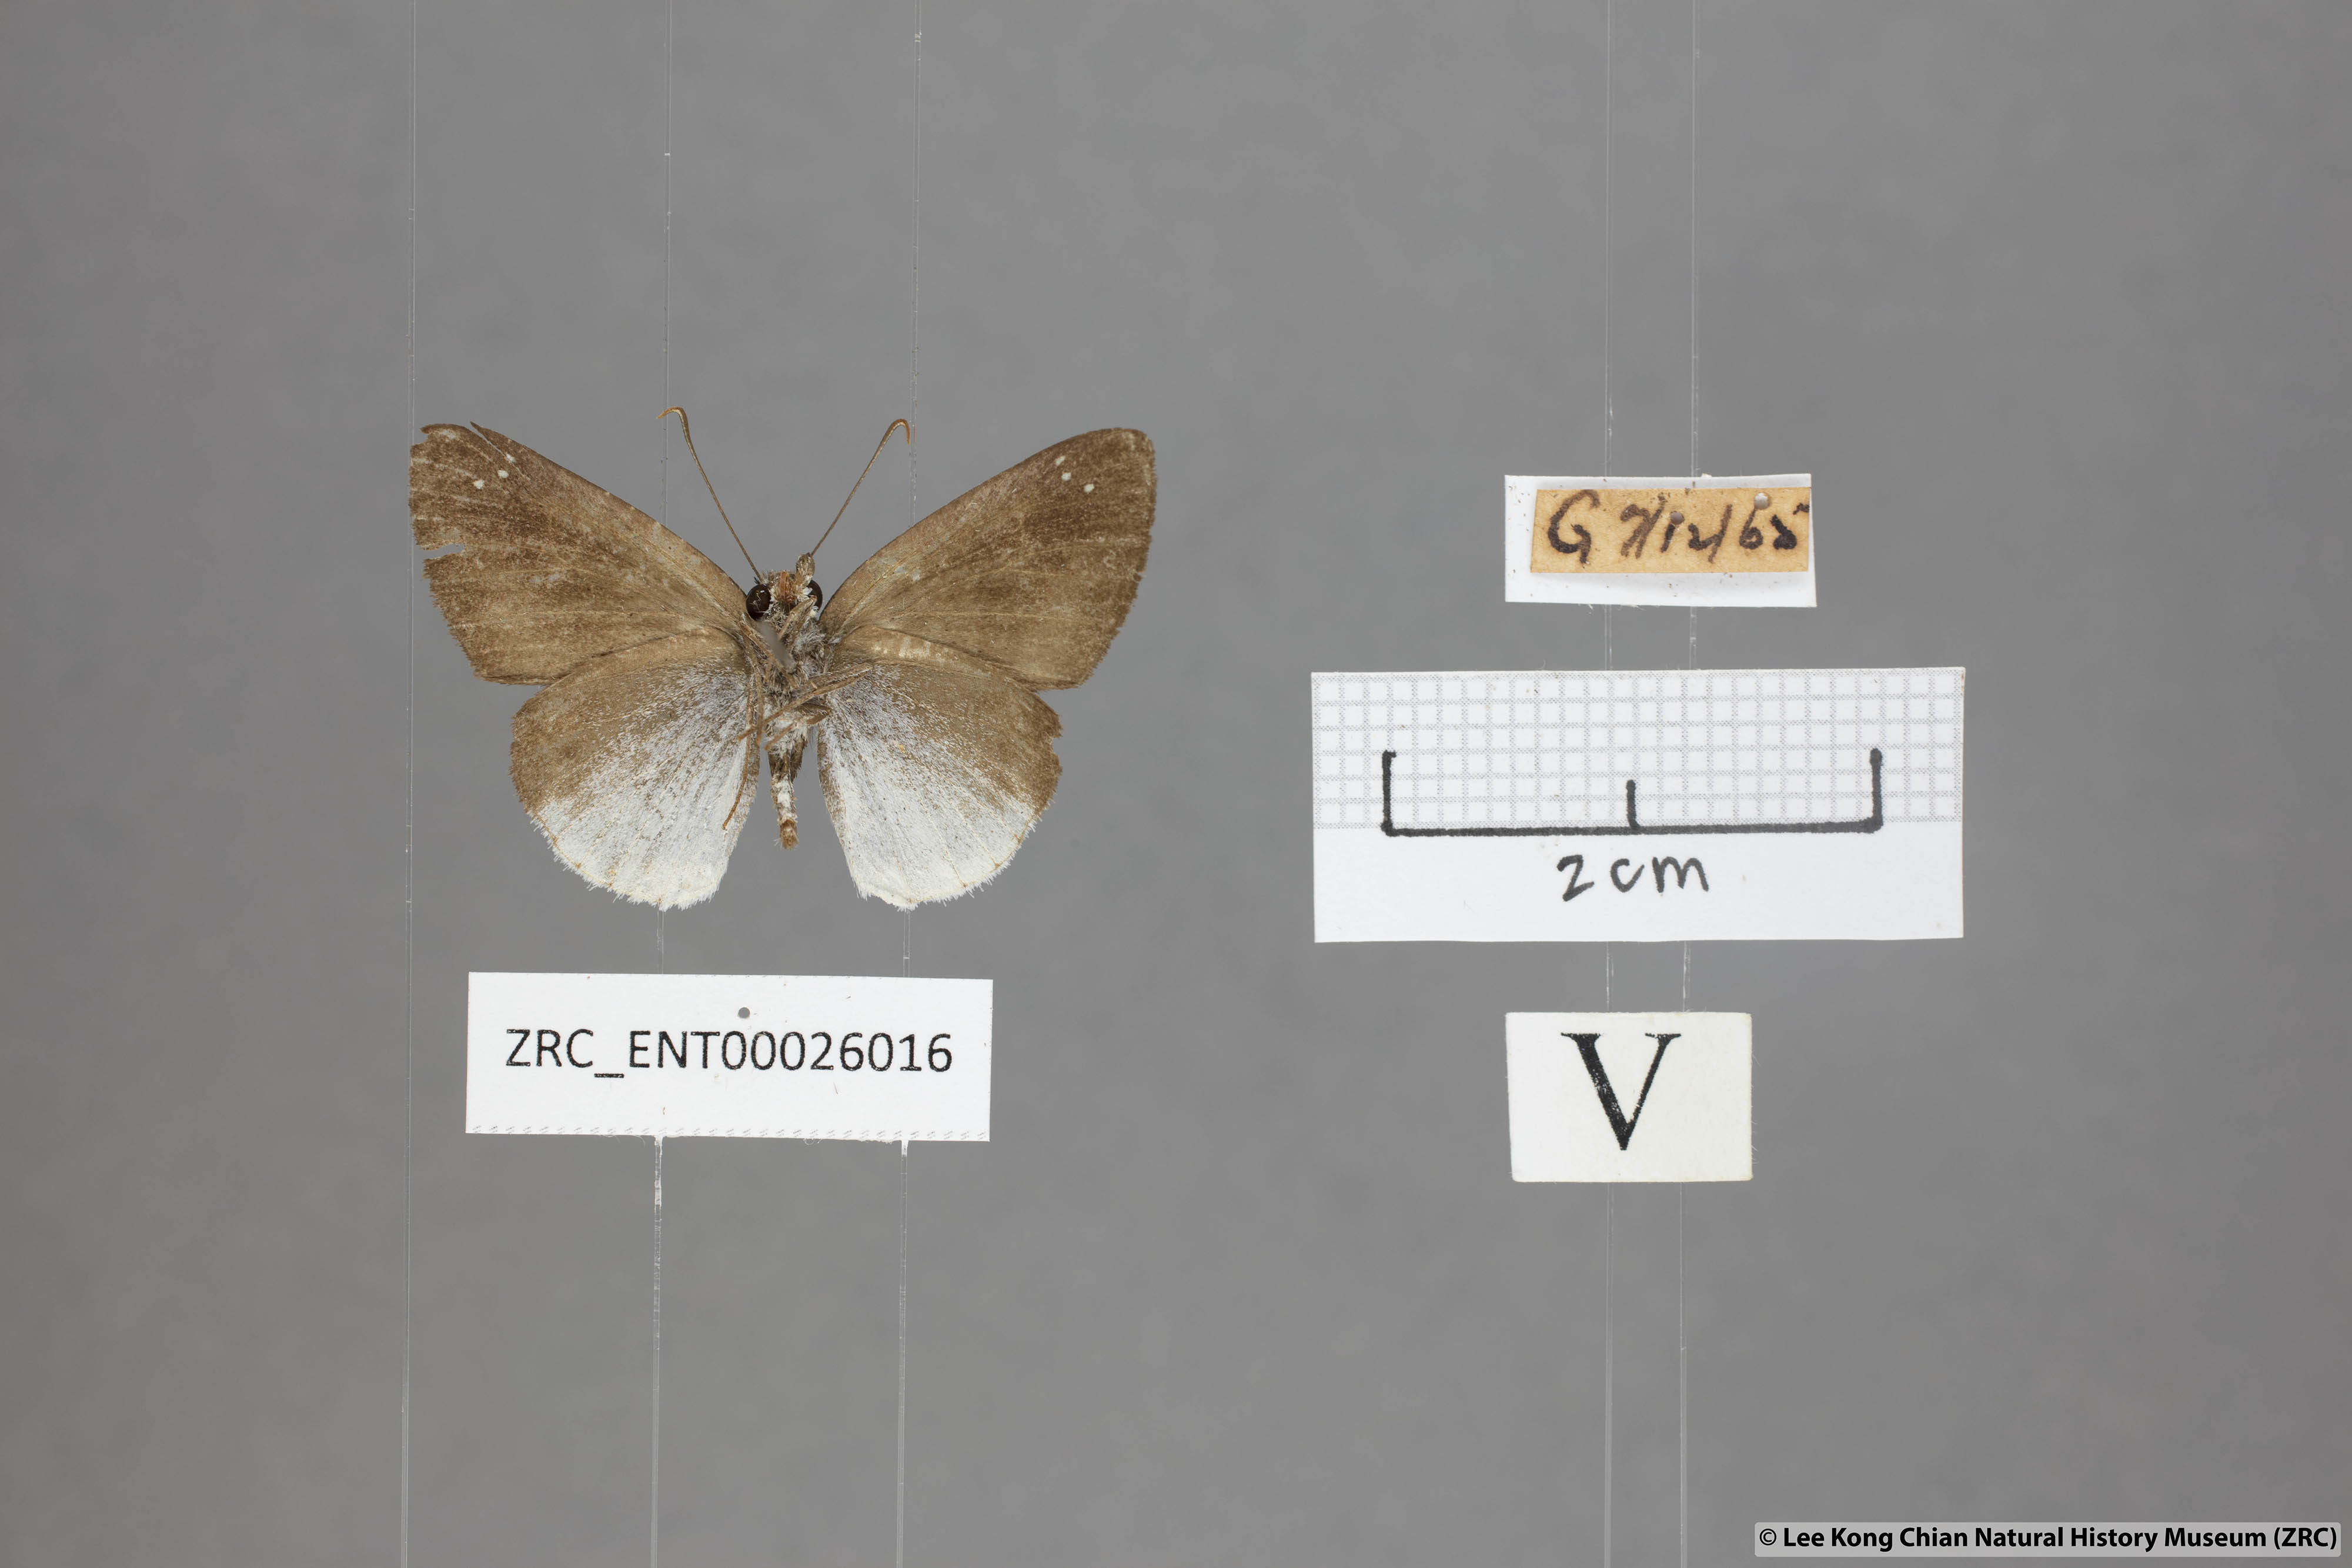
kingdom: Animalia
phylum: Arthropoda
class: Insecta
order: Lepidoptera
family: Hesperiidae
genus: Tagiades
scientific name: Tagiades lavata
